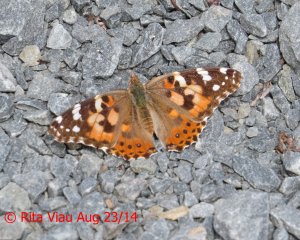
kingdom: Animalia
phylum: Arthropoda
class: Insecta
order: Lepidoptera
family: Nymphalidae
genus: Vanessa
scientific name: Vanessa cardui
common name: Painted Lady
